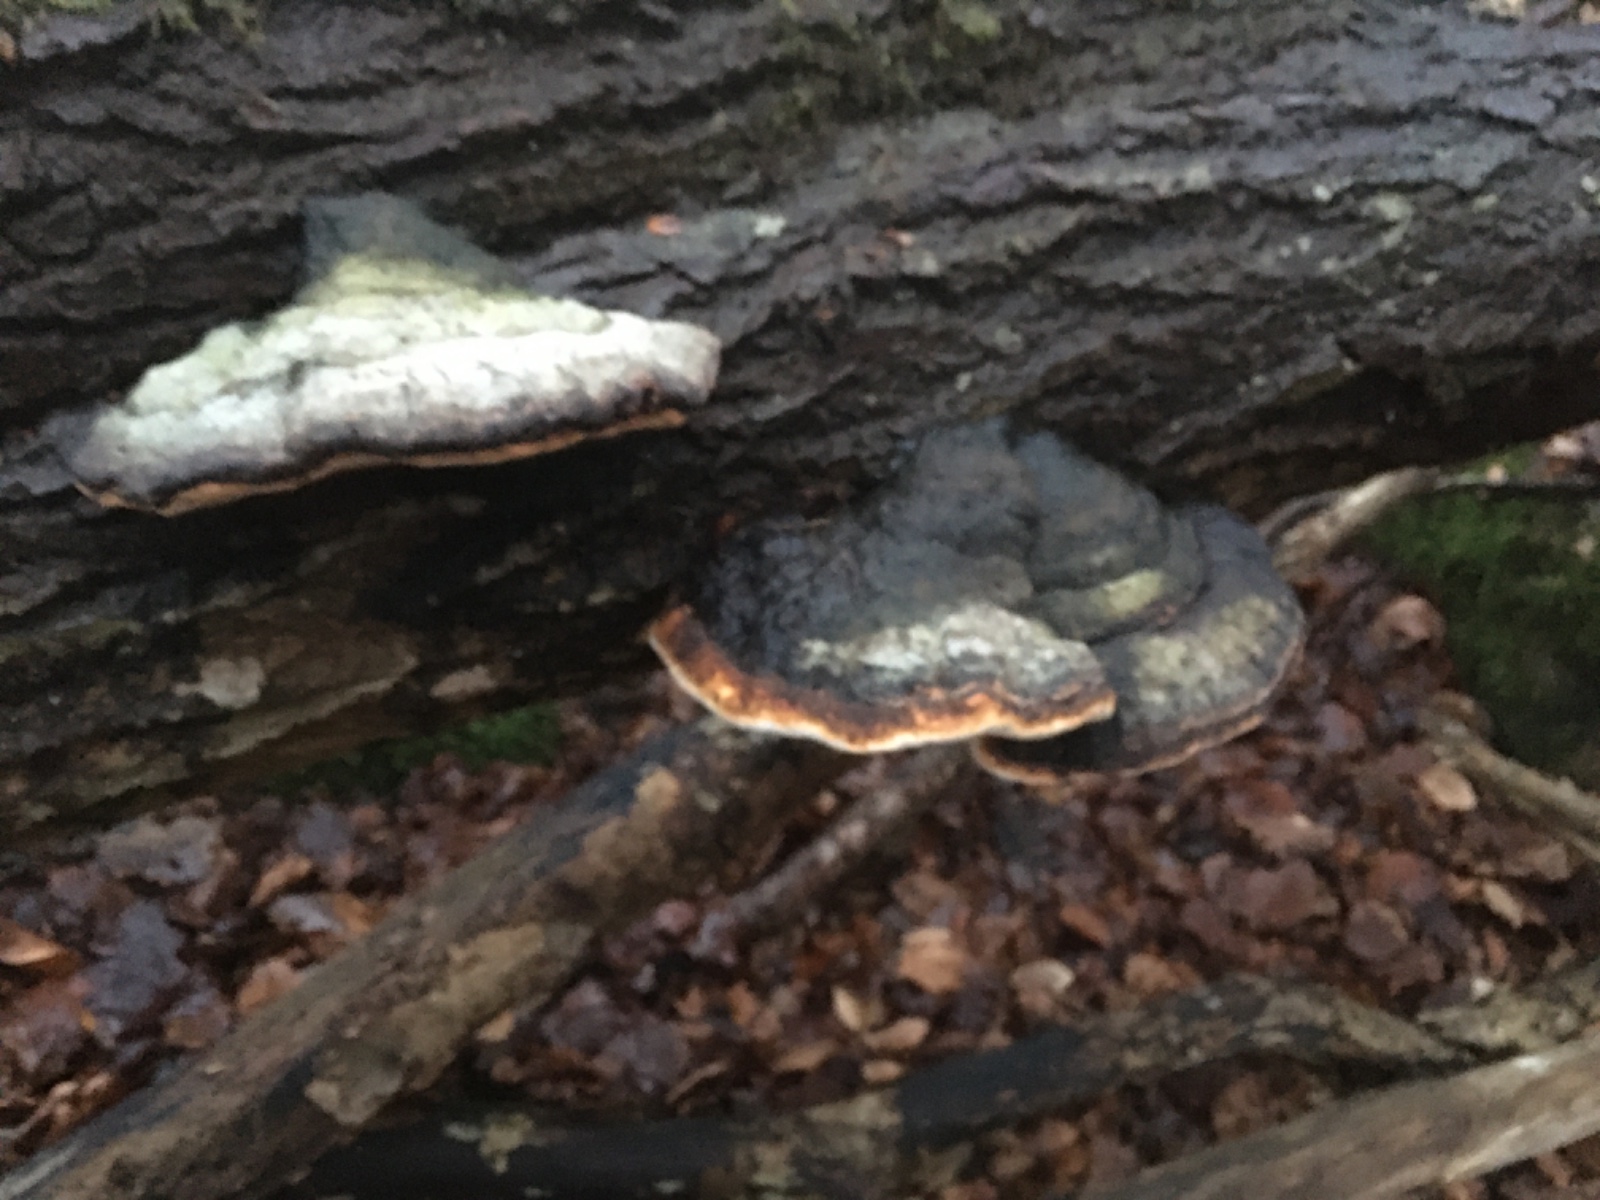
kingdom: Fungi
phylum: Basidiomycota
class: Agaricomycetes
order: Polyporales
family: Fomitopsidaceae
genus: Fomitopsis
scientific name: Fomitopsis pinicola
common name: randbæltet hovporesvamp
